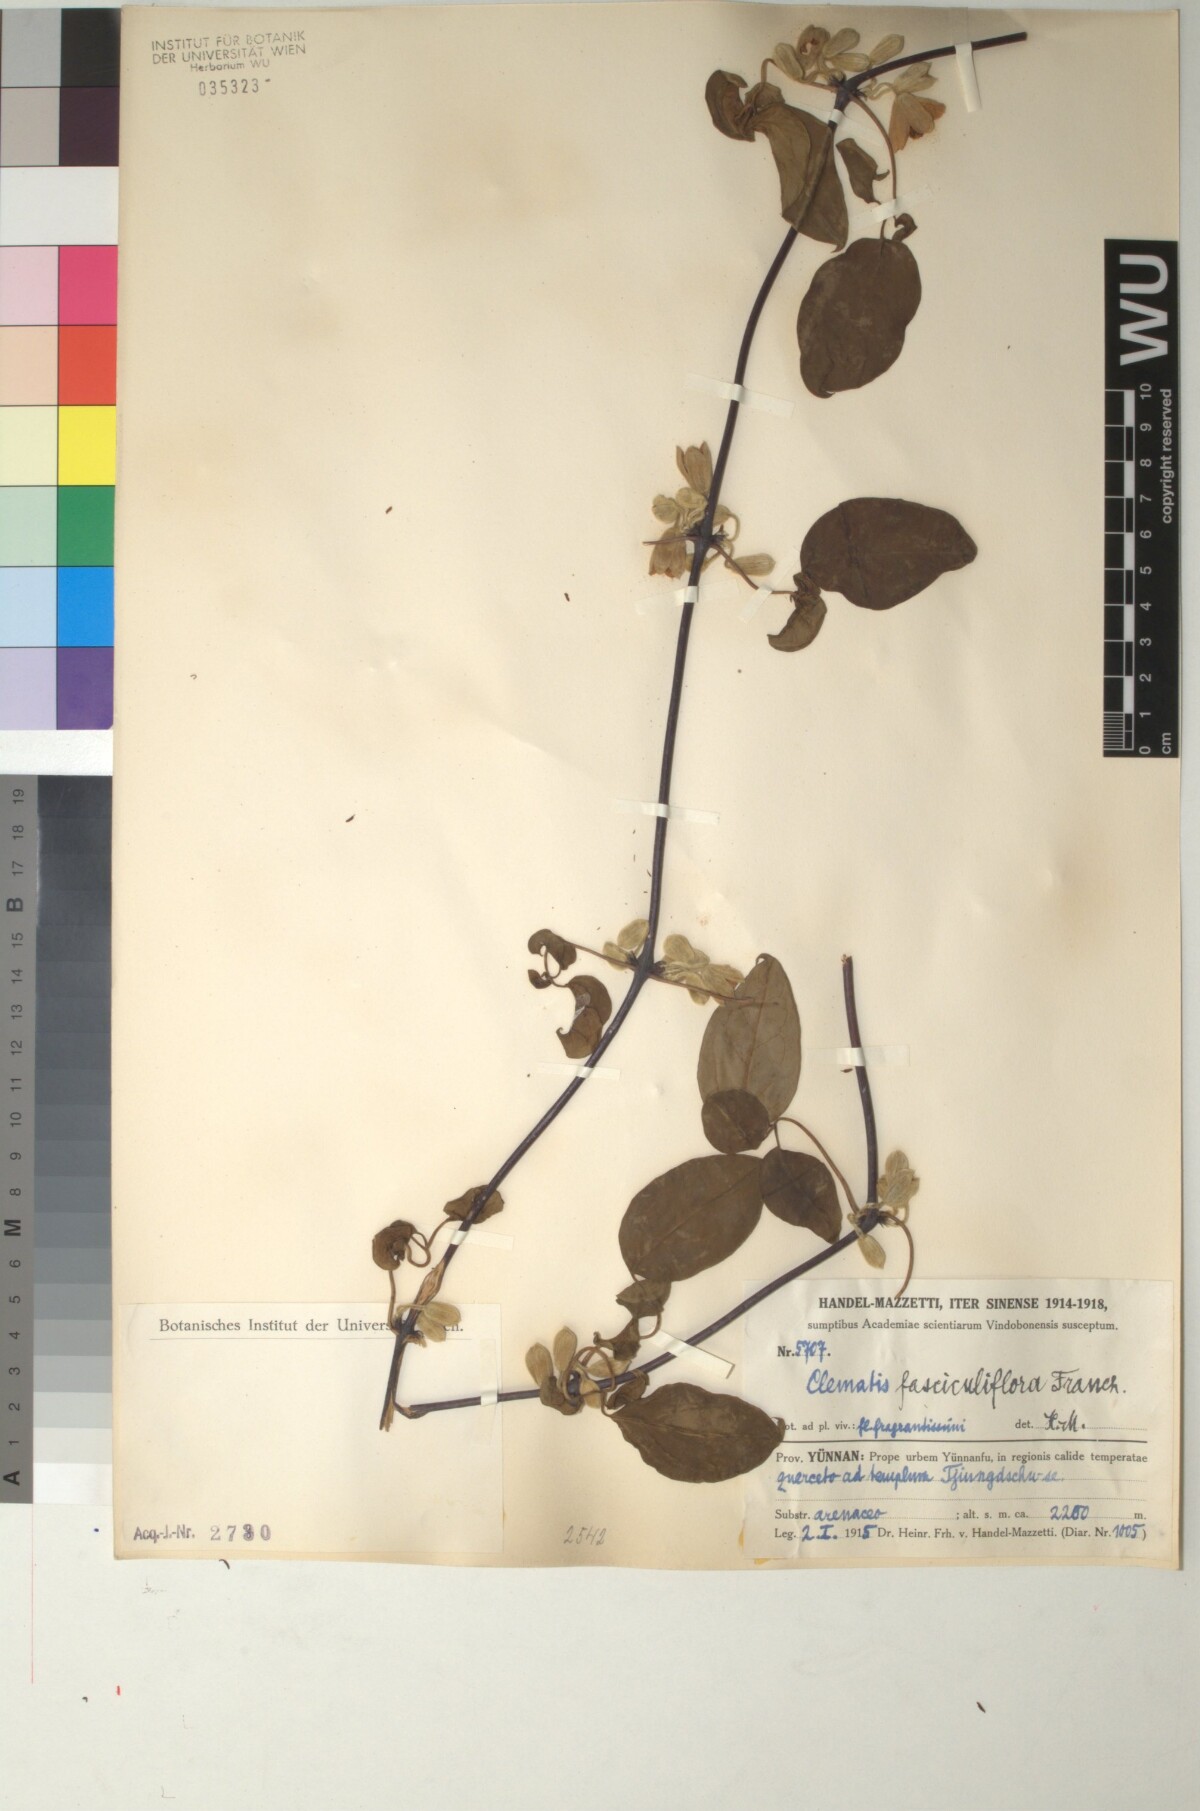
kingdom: Plantae
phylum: Tracheophyta
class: Magnoliopsida
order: Ranunculales
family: Ranunculaceae
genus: Clematis
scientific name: Clematis fasciculiflora
